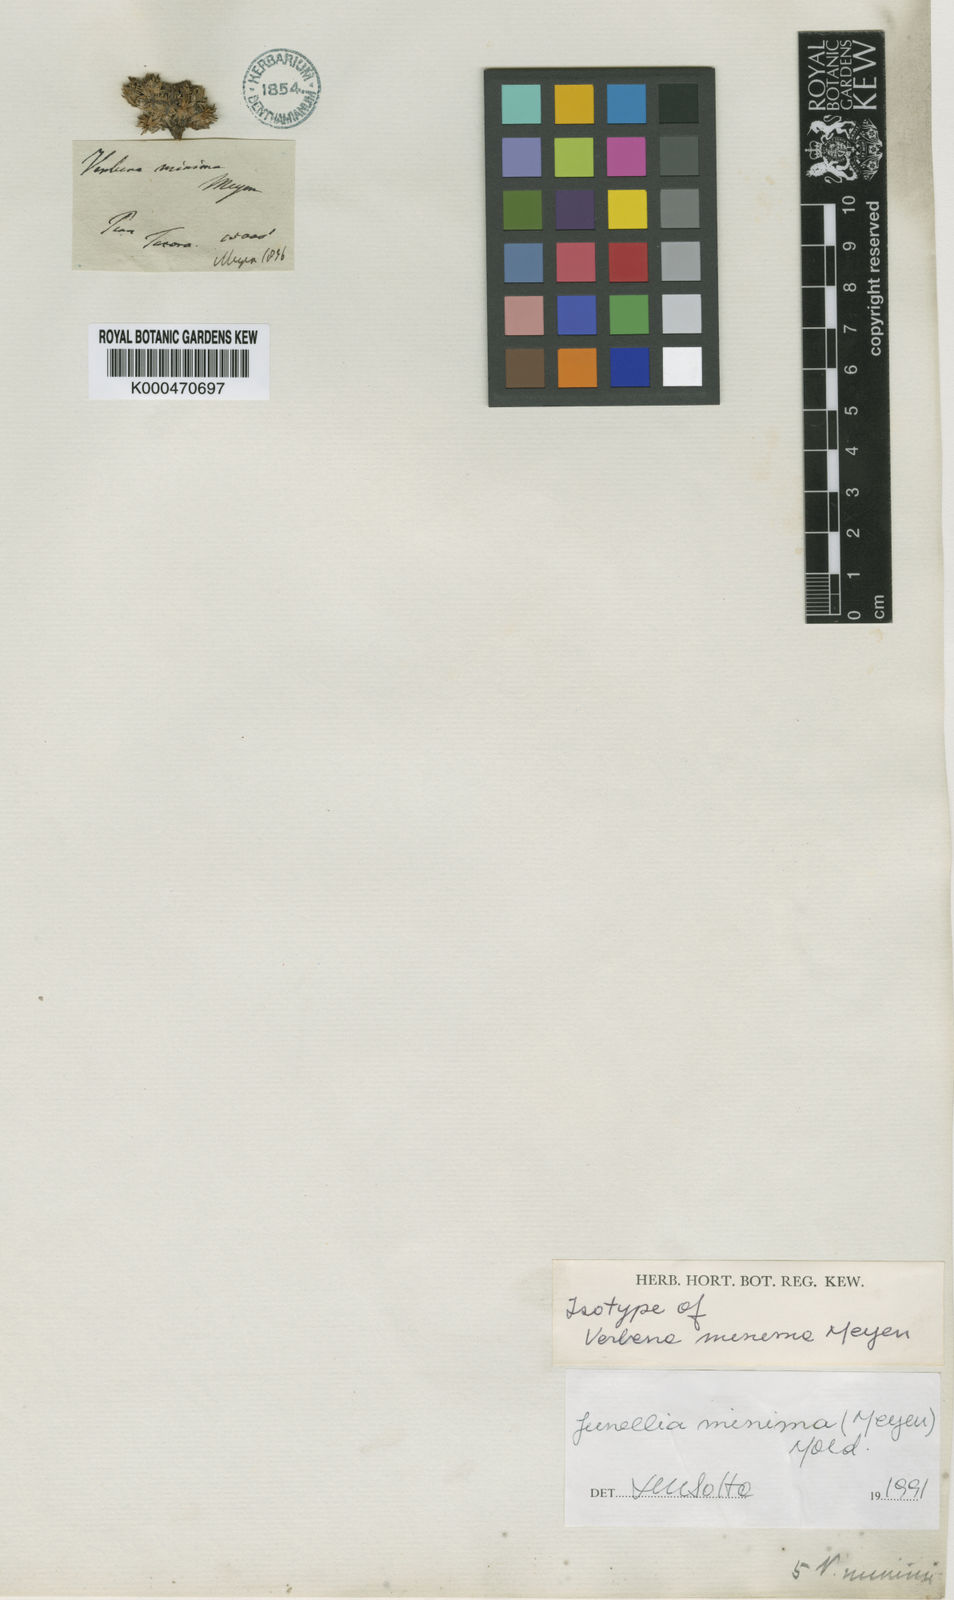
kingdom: Plantae
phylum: Tracheophyta
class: Magnoliopsida
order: Lamiales
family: Verbenaceae
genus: Junellia
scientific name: Junellia minima
